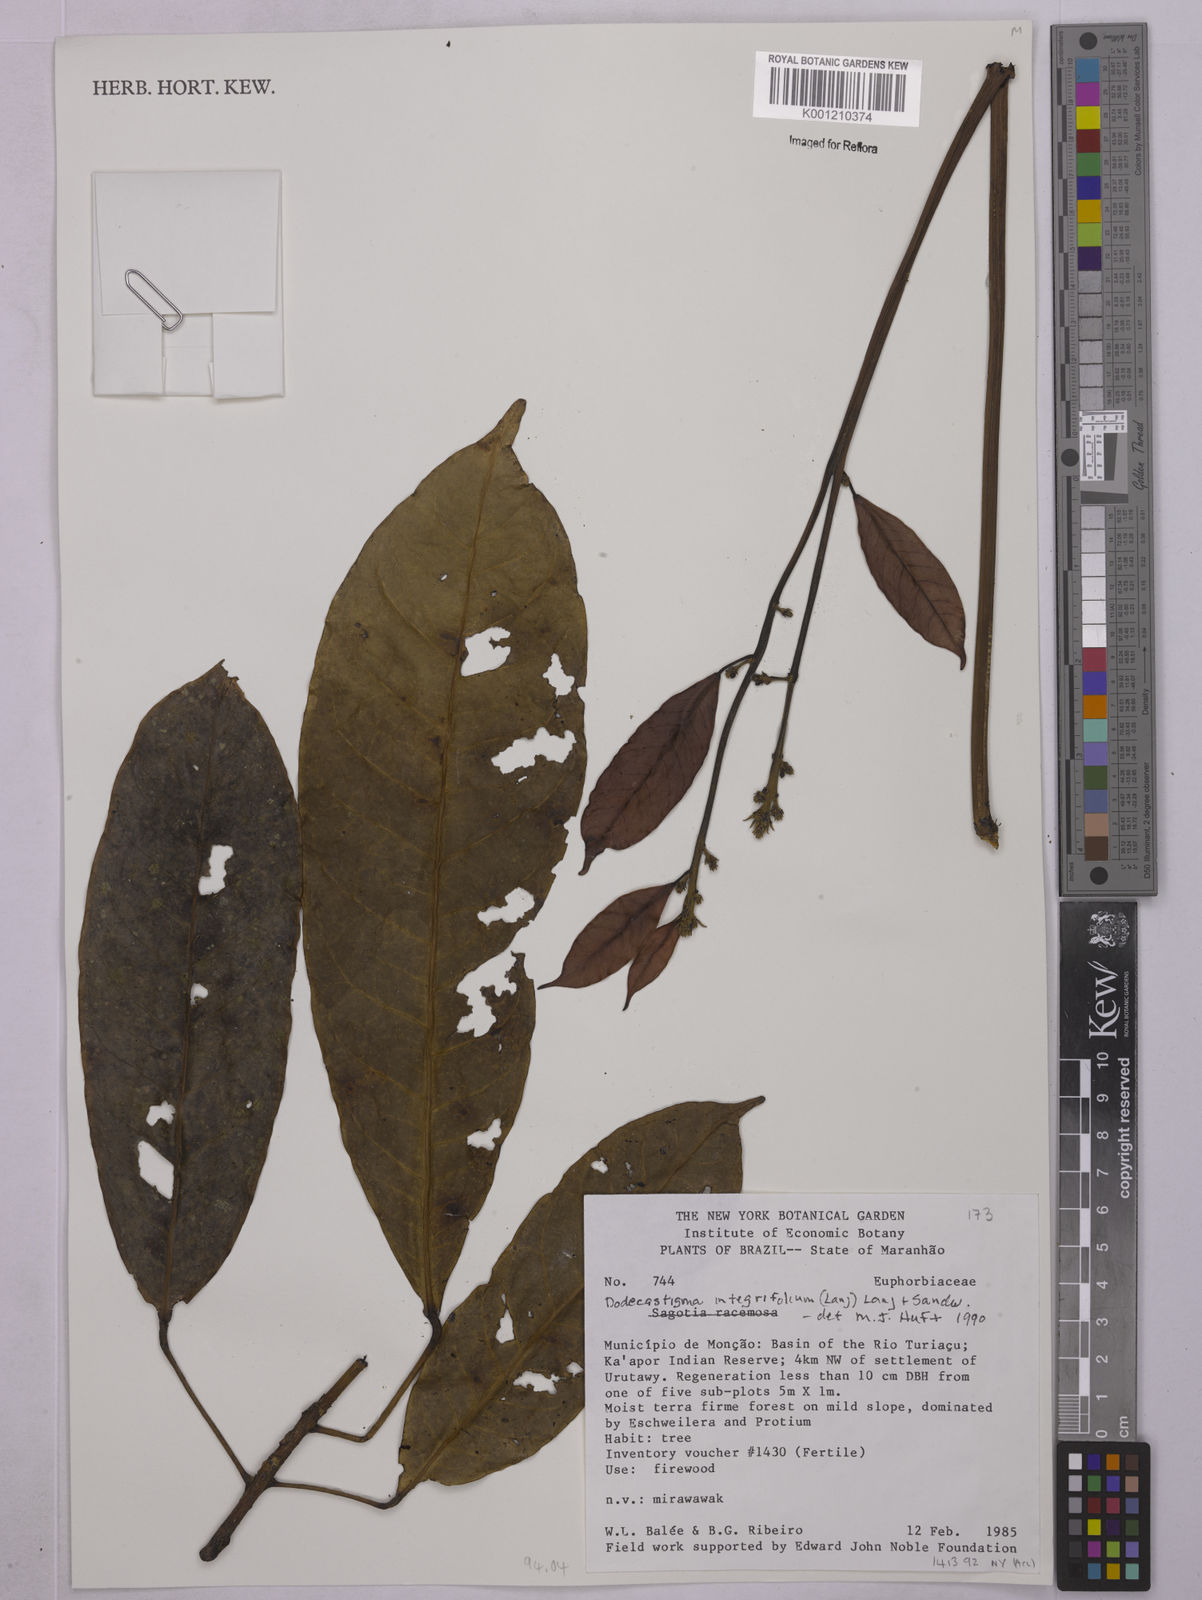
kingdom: Plantae
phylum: Tracheophyta
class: Magnoliopsida
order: Malpighiales
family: Euphorbiaceae
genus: Dodecastigma
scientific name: Dodecastigma integrifolium
